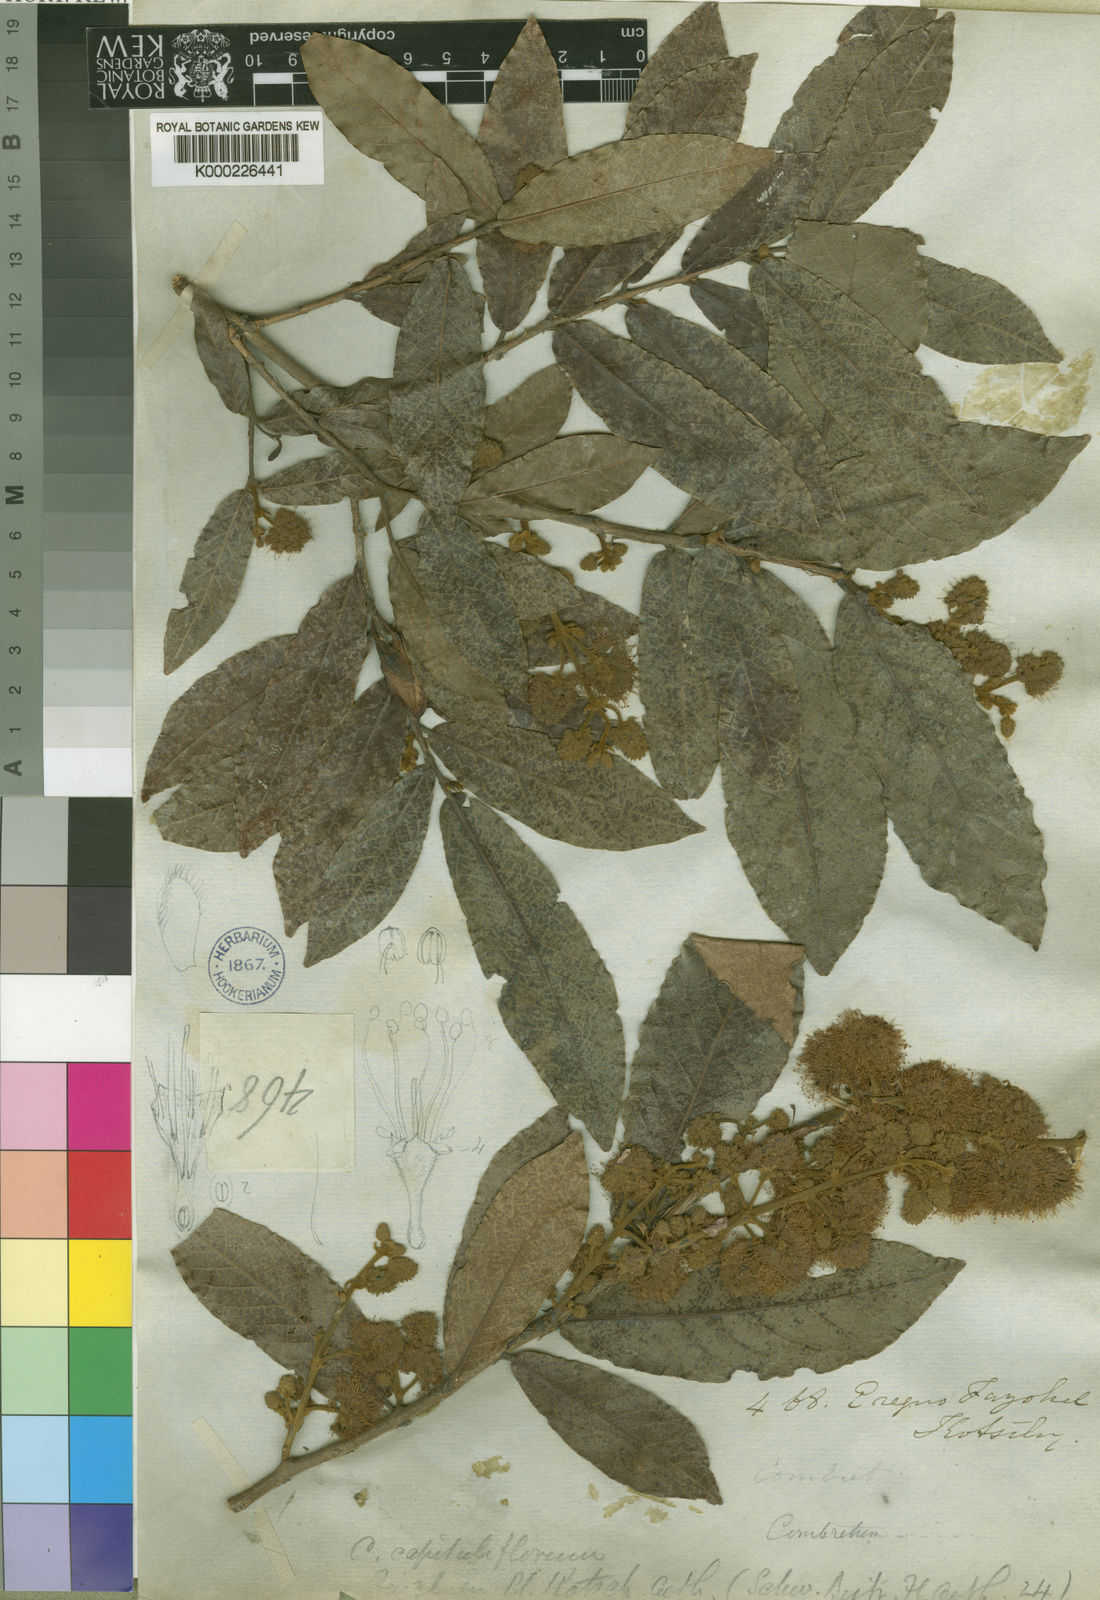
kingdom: Plantae
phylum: Tracheophyta
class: Magnoliopsida
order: Myrtales
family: Combretaceae
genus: Combretum
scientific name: Combretum capituliflorum
